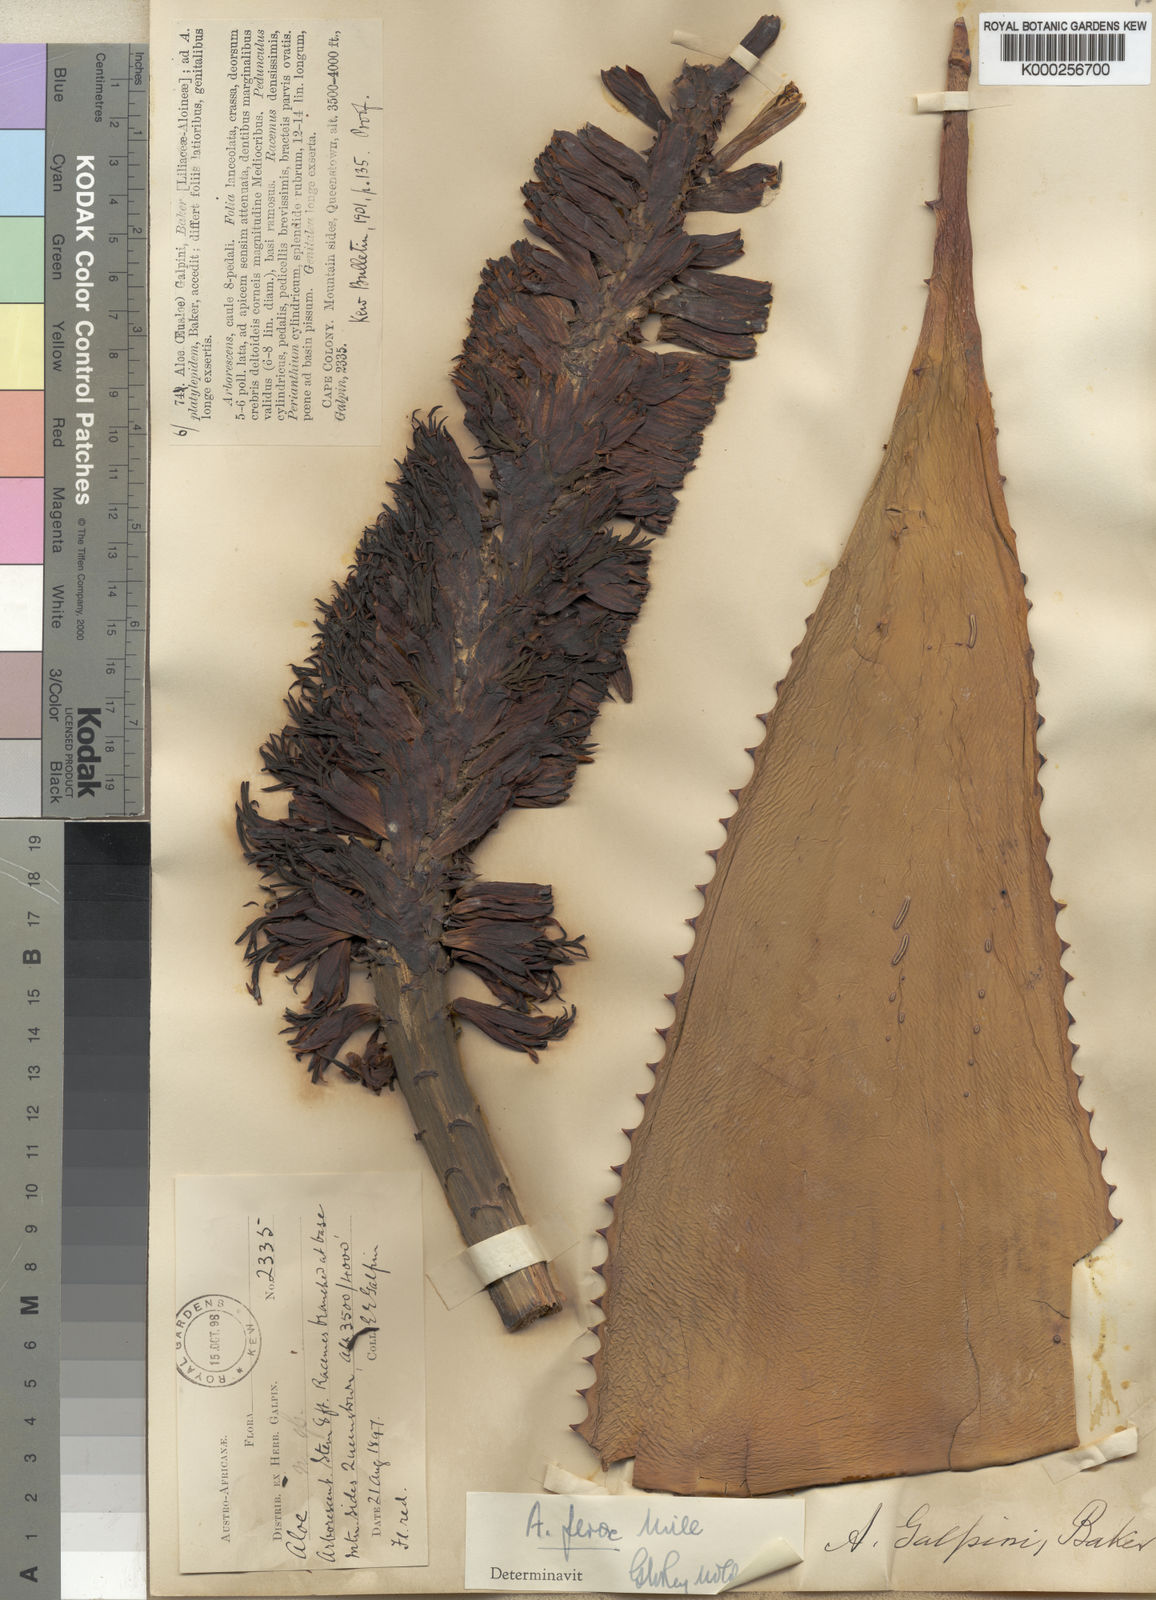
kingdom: Plantae
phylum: Tracheophyta
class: Liliopsida
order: Asparagales
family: Asphodelaceae
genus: Aloe
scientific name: Aloe ferox
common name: Bitter aloe
